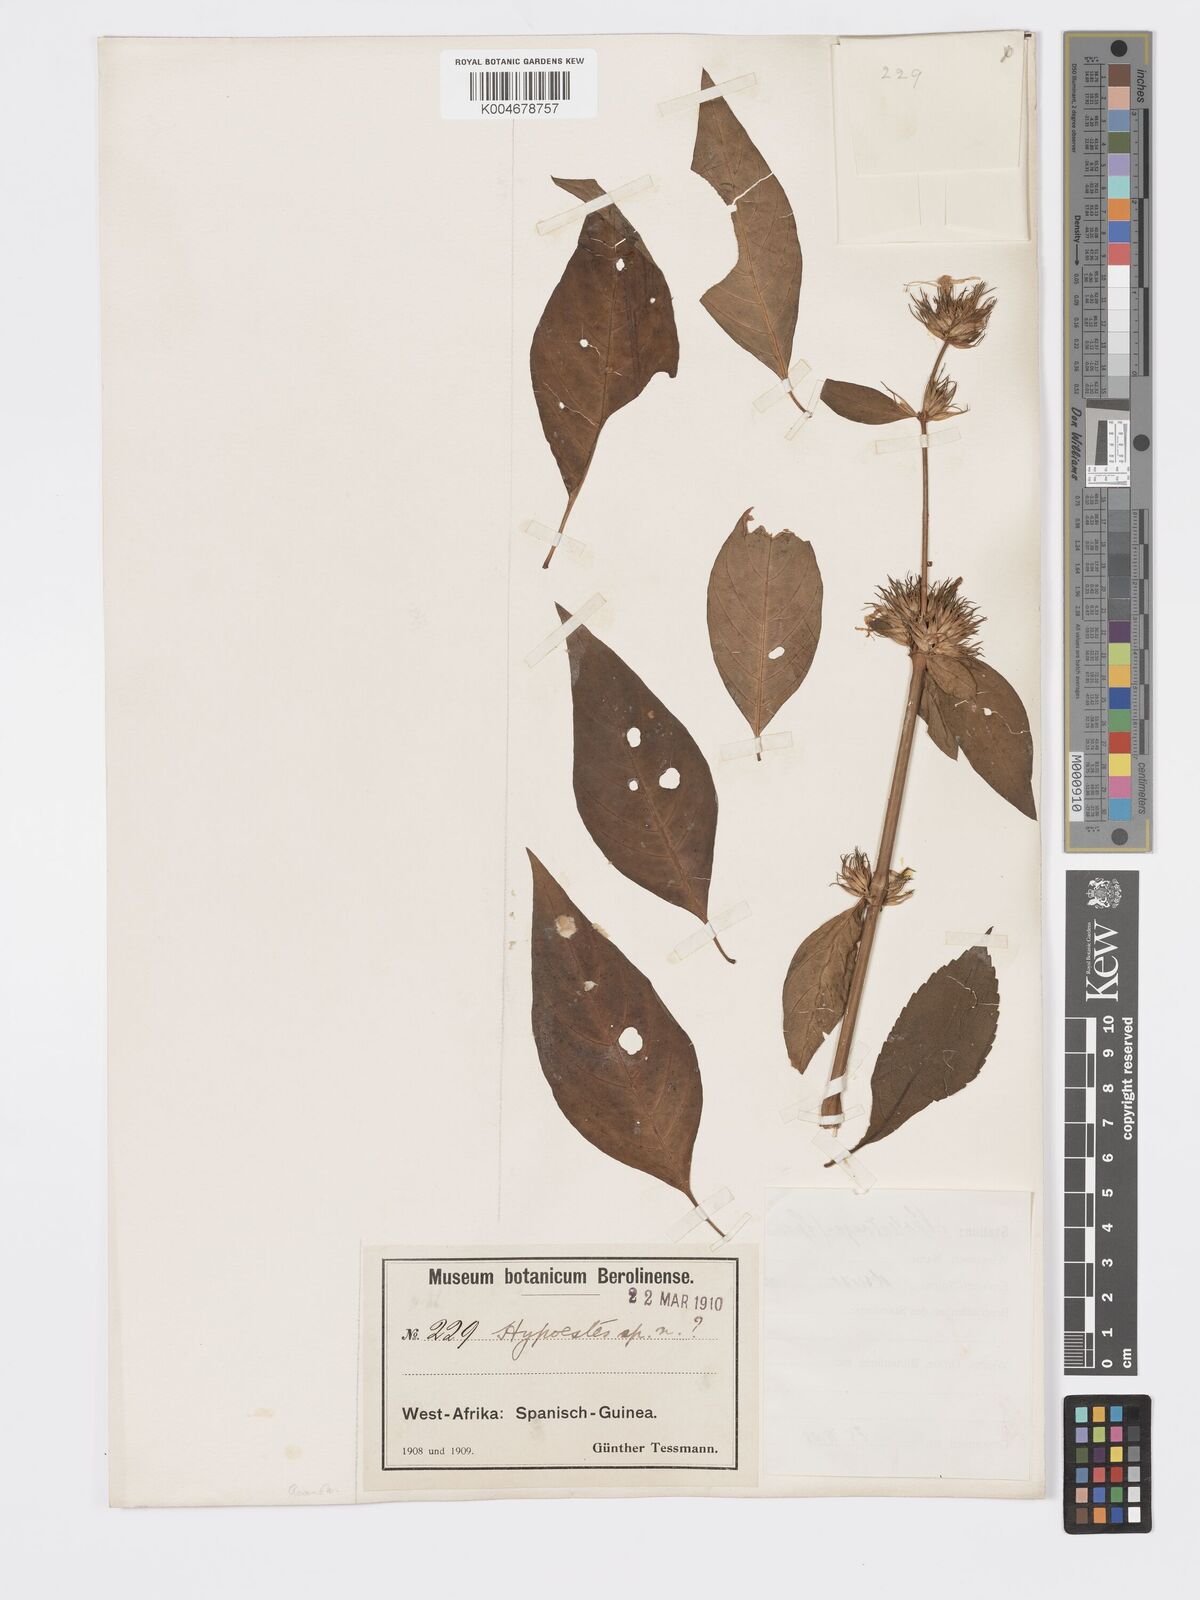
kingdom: Plantae
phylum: Tracheophyta
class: Magnoliopsida
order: Lamiales
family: Acanthaceae
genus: Hypoestes
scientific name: Hypoestes aristata
